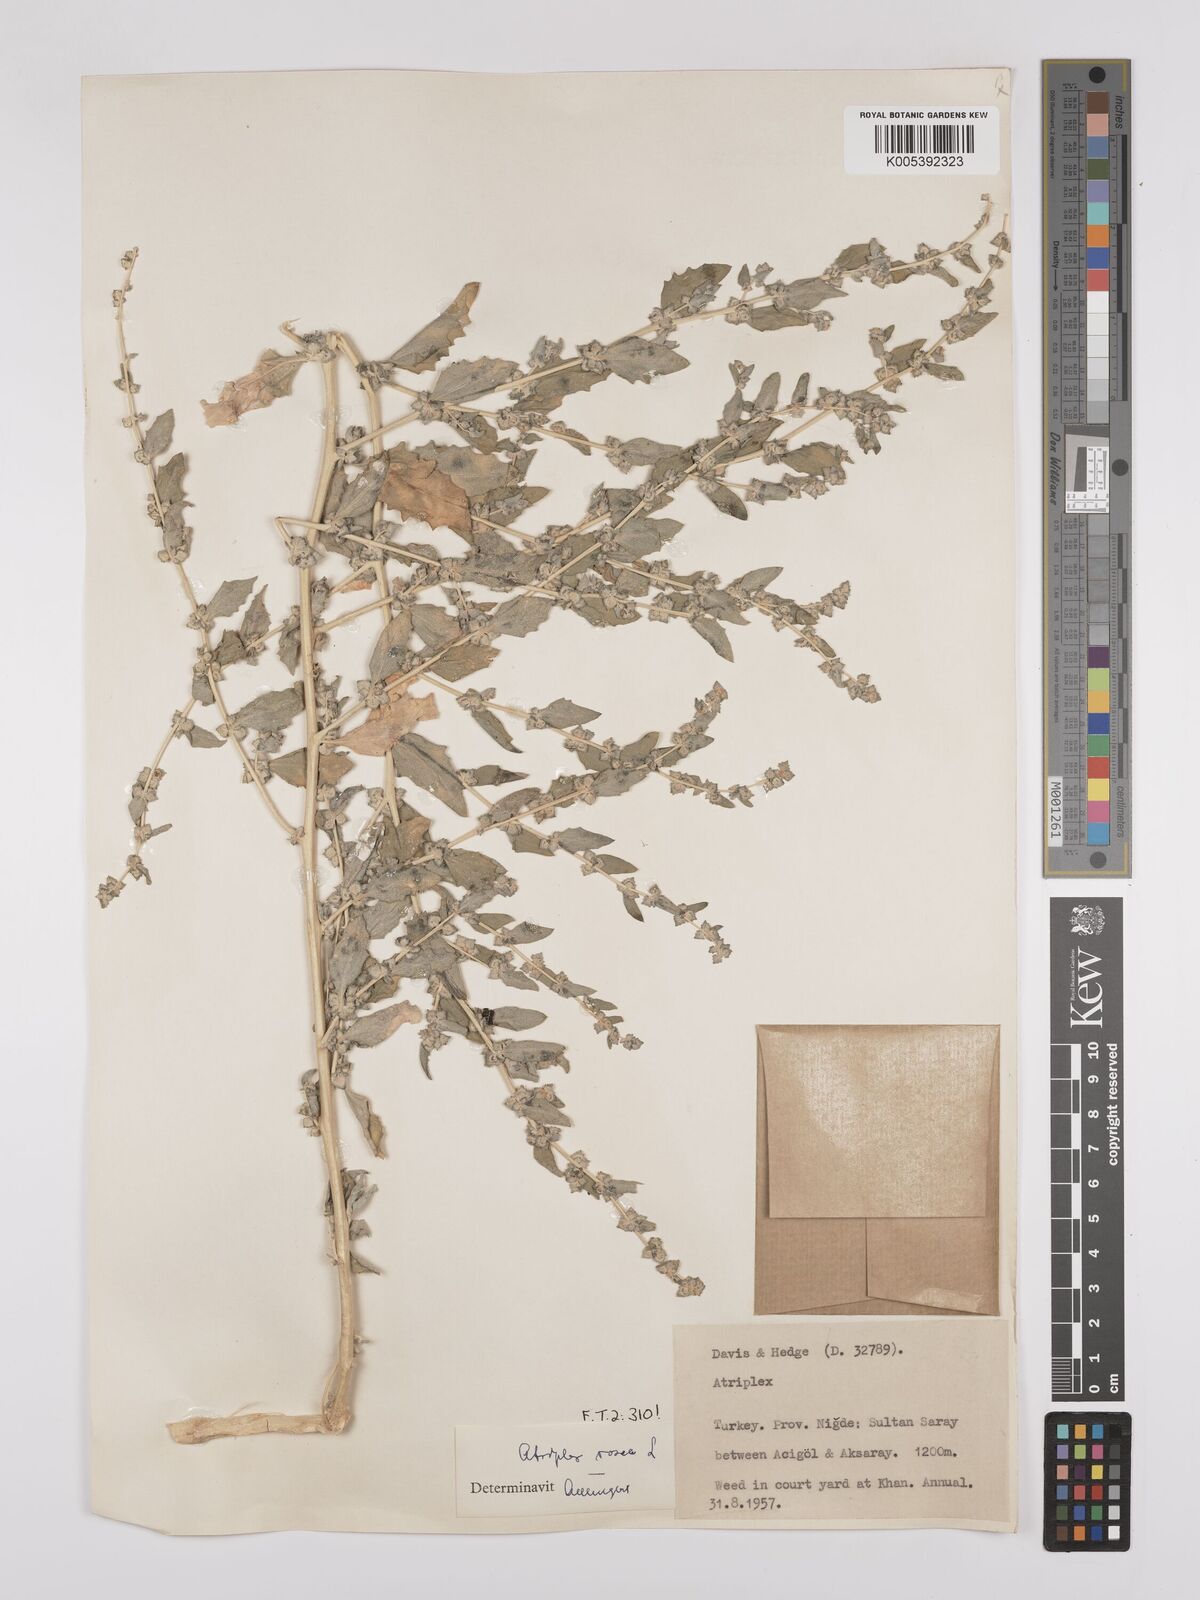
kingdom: Plantae
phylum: Tracheophyta
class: Magnoliopsida
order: Caryophyllales
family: Amaranthaceae
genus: Atriplex
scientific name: Atriplex
